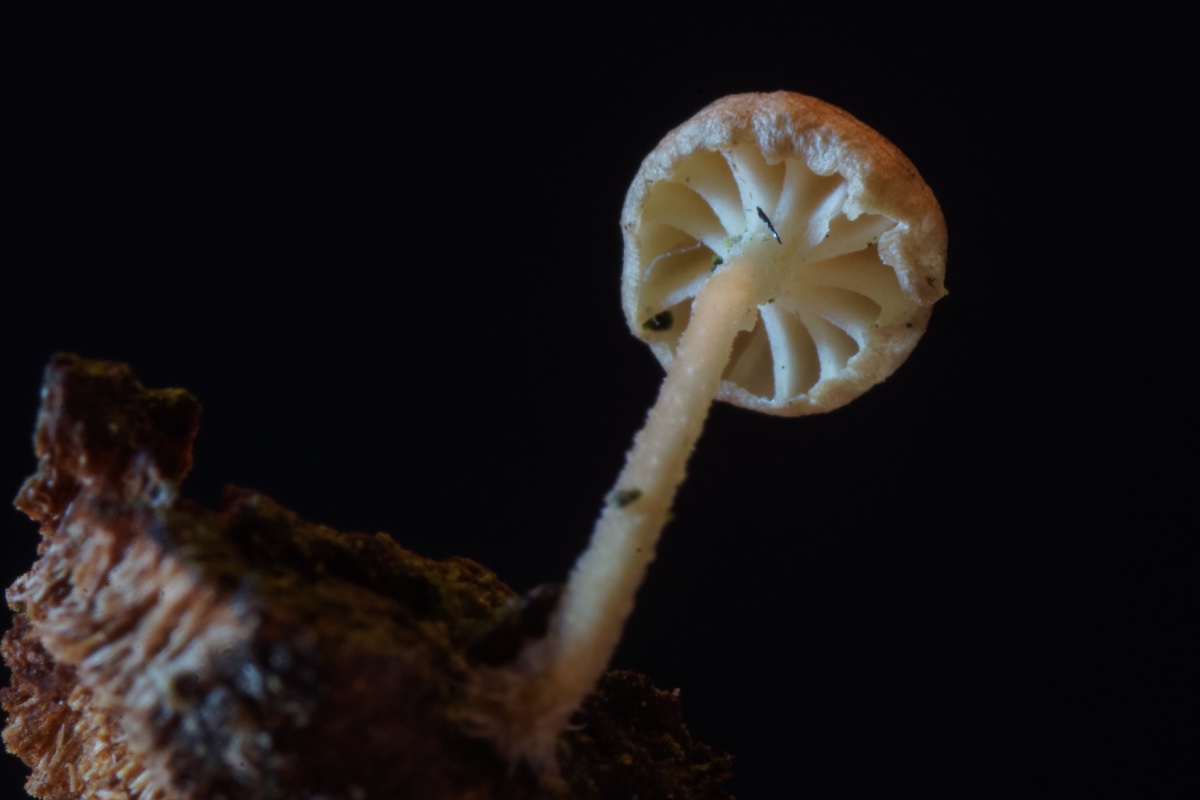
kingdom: Fungi
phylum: Basidiomycota
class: Agaricomycetes
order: Agaricales
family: Porotheleaceae
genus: Phloeomana
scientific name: Phloeomana speirea
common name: kvist-huesvamp
